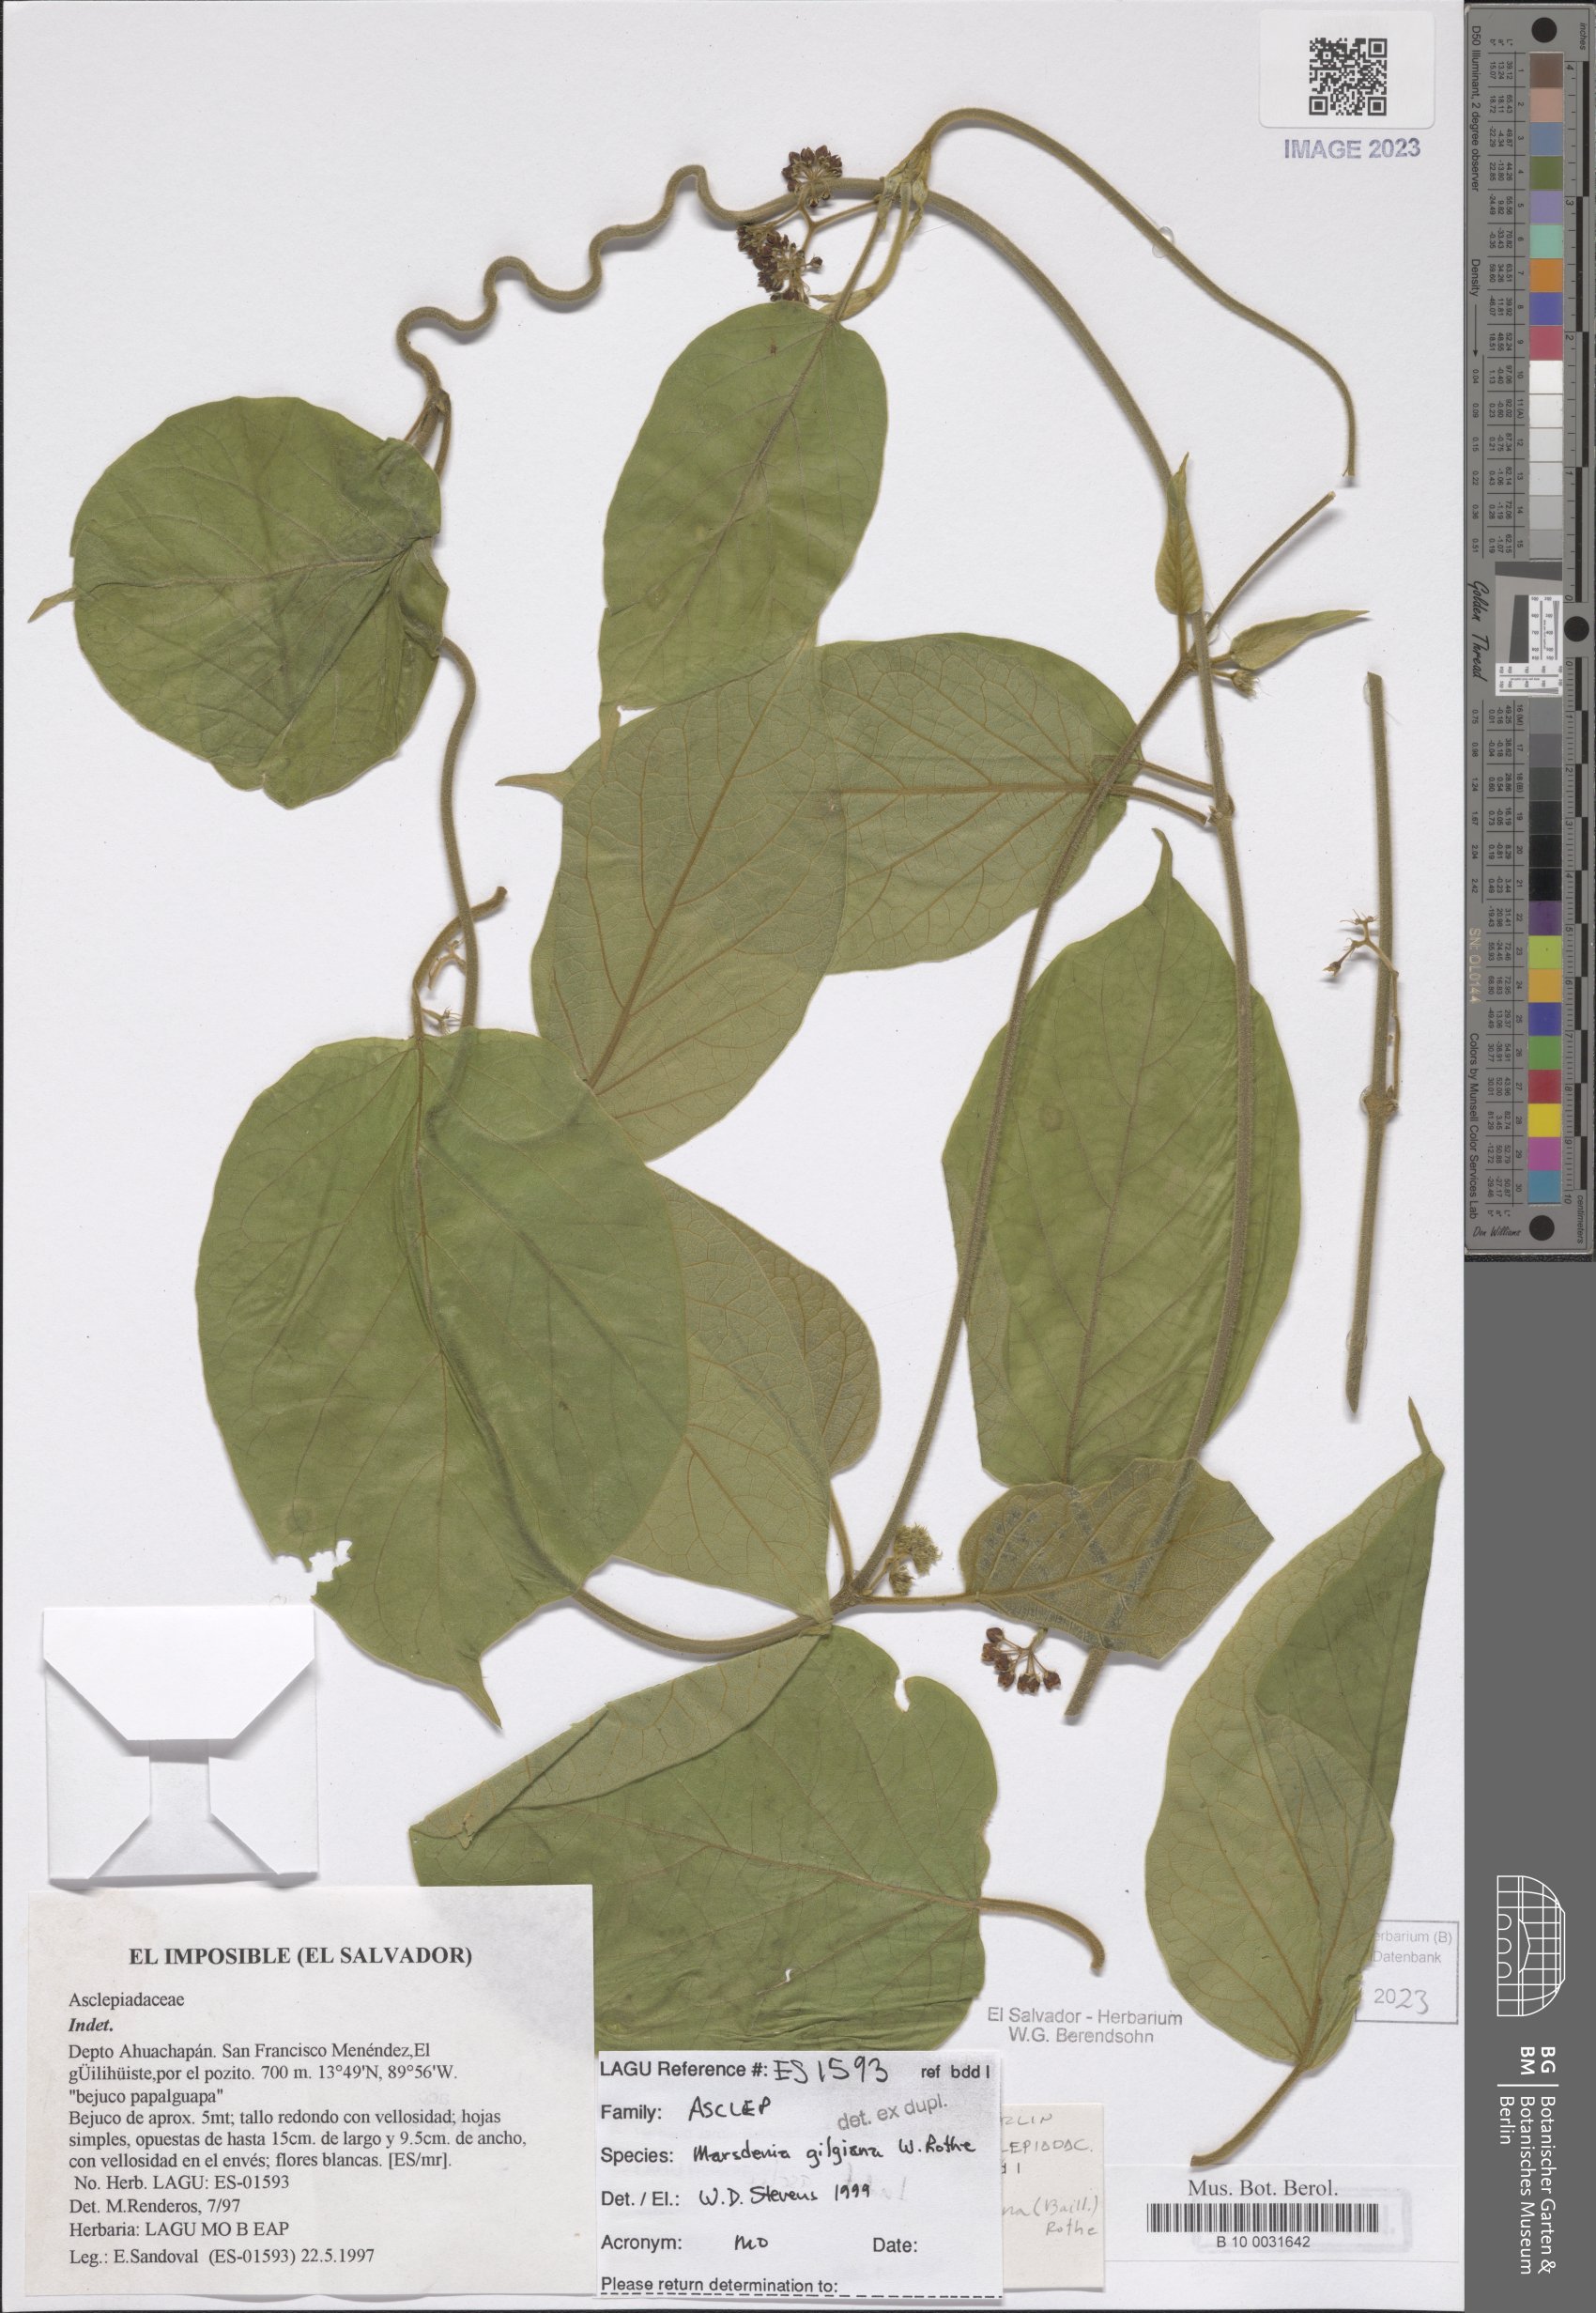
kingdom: Plantae
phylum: Tracheophyta
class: Magnoliopsida
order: Gentianales
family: Apocynaceae
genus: Ruehssia
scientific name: Ruehssia gilgiana
